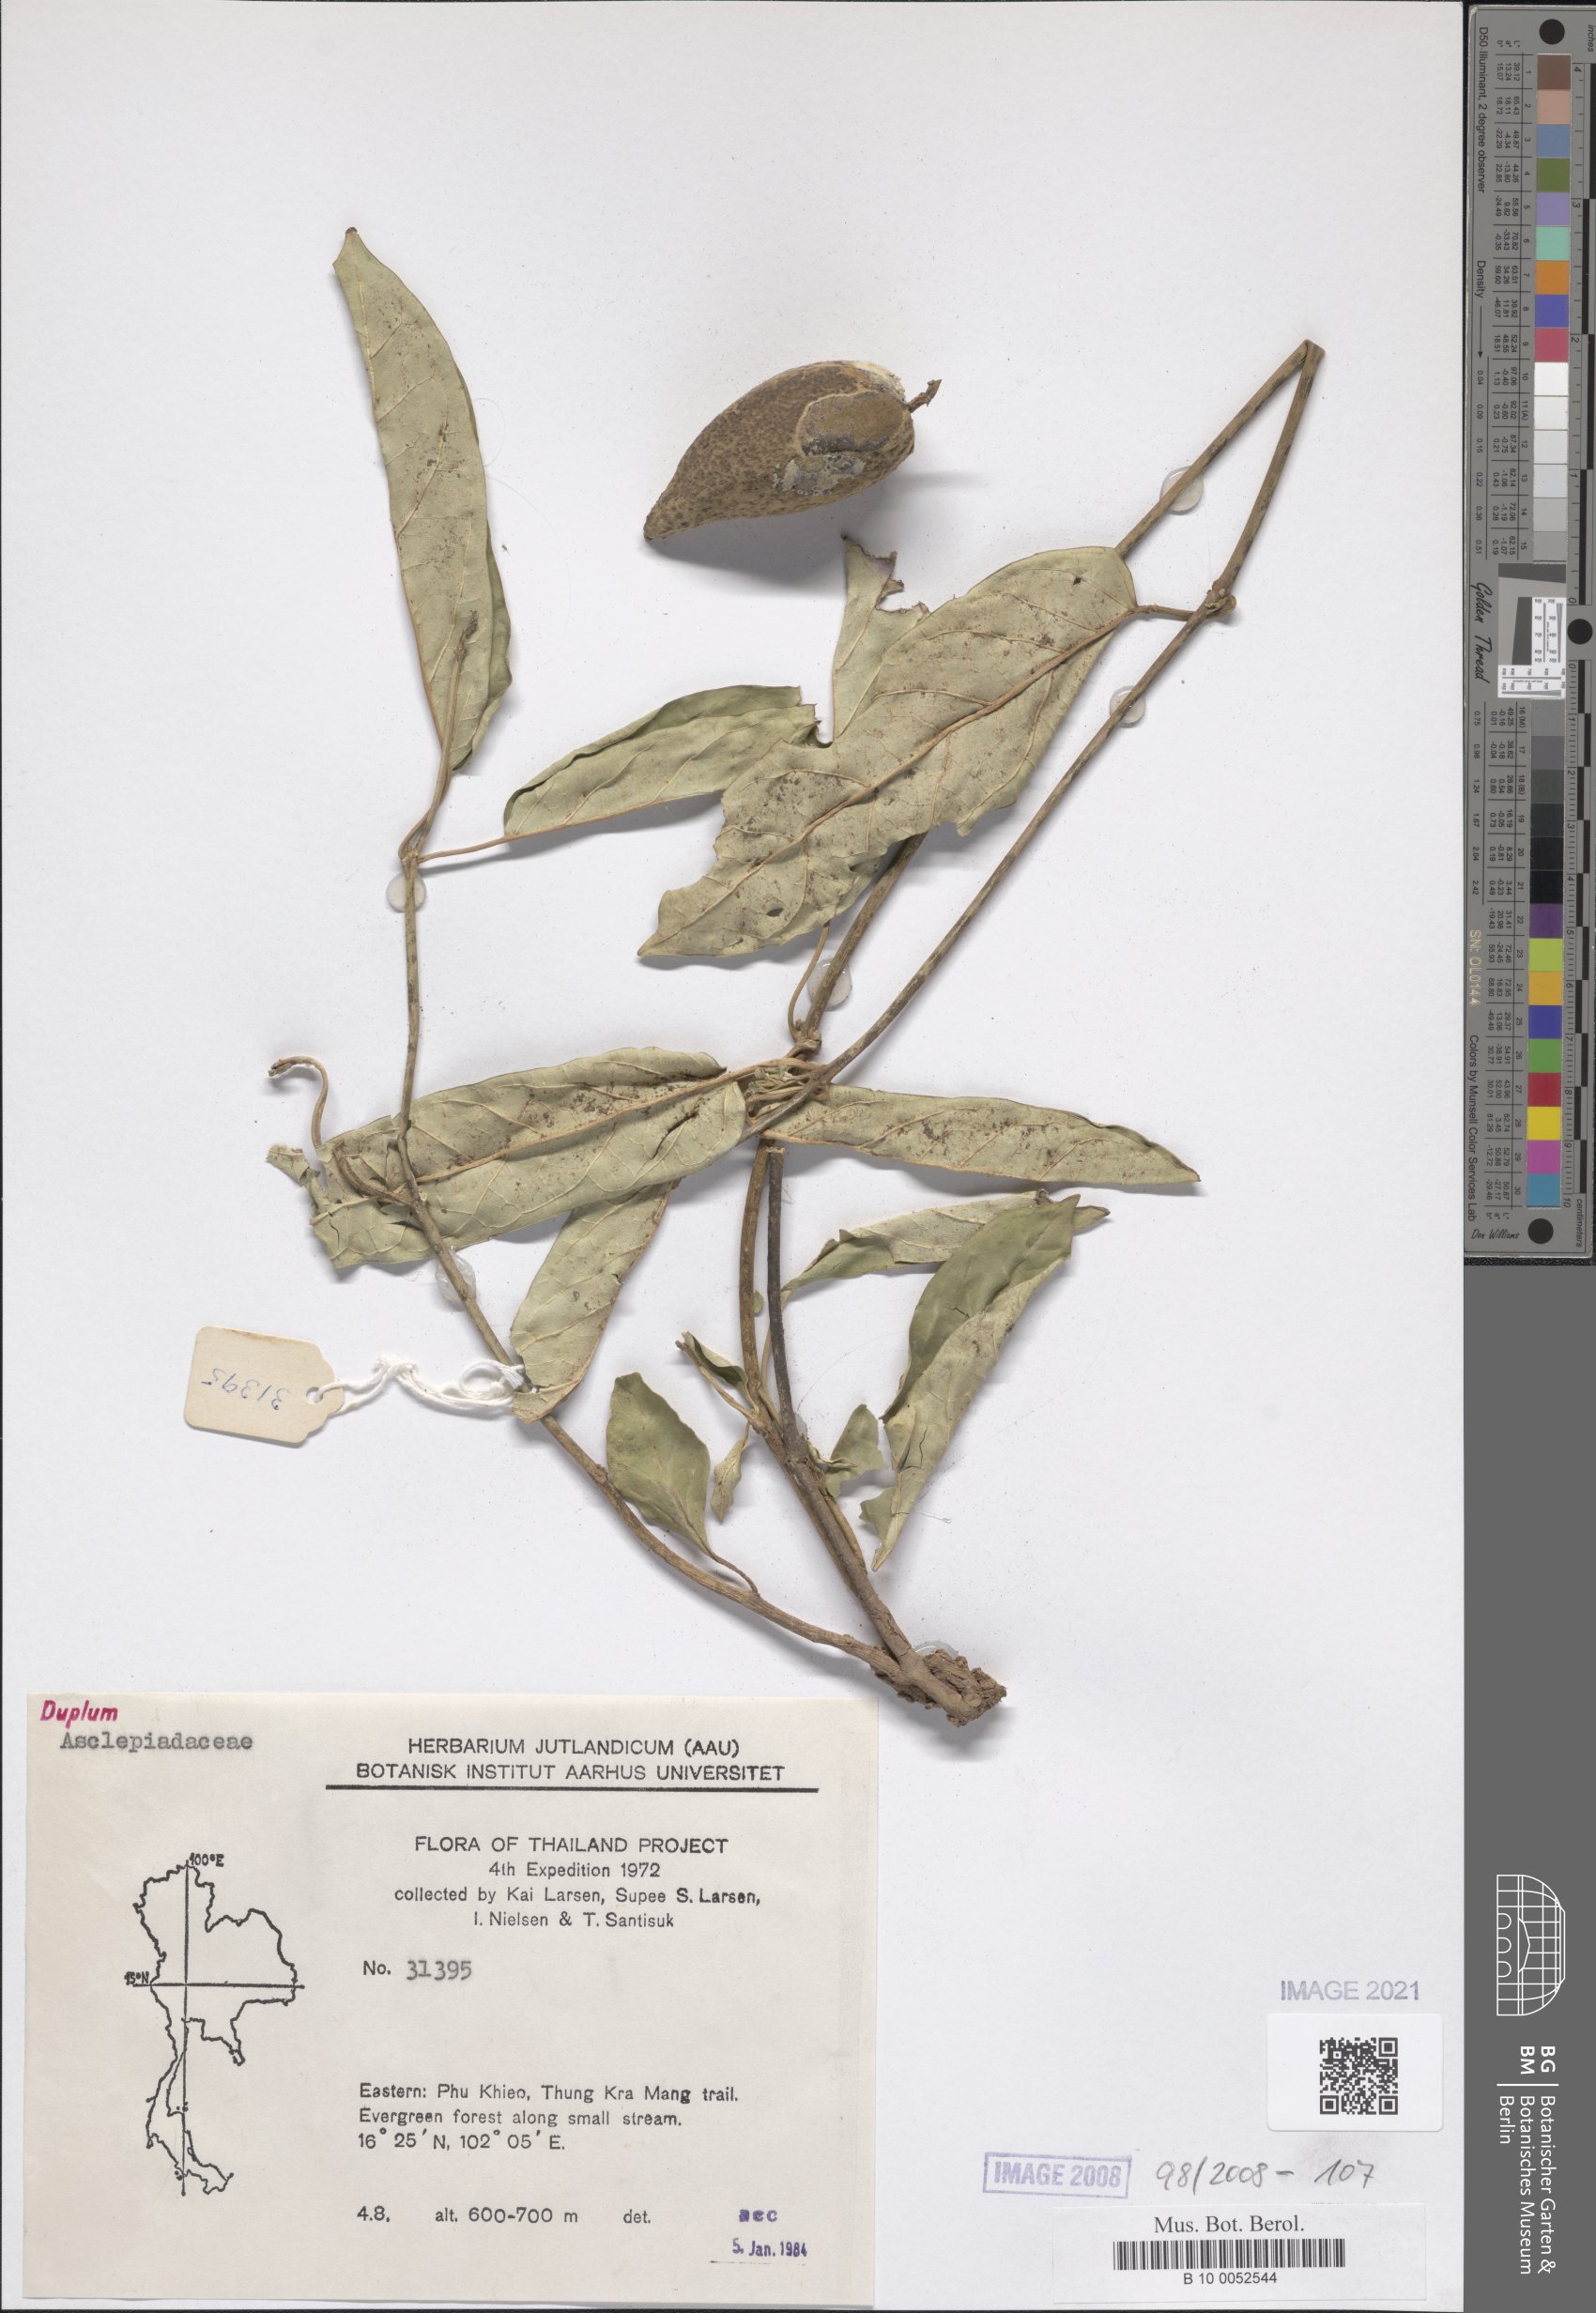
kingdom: Plantae
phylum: Tracheophyta
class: Magnoliopsida
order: Gentianales
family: Asclepiadaceae
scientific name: Asclepiadaceae
